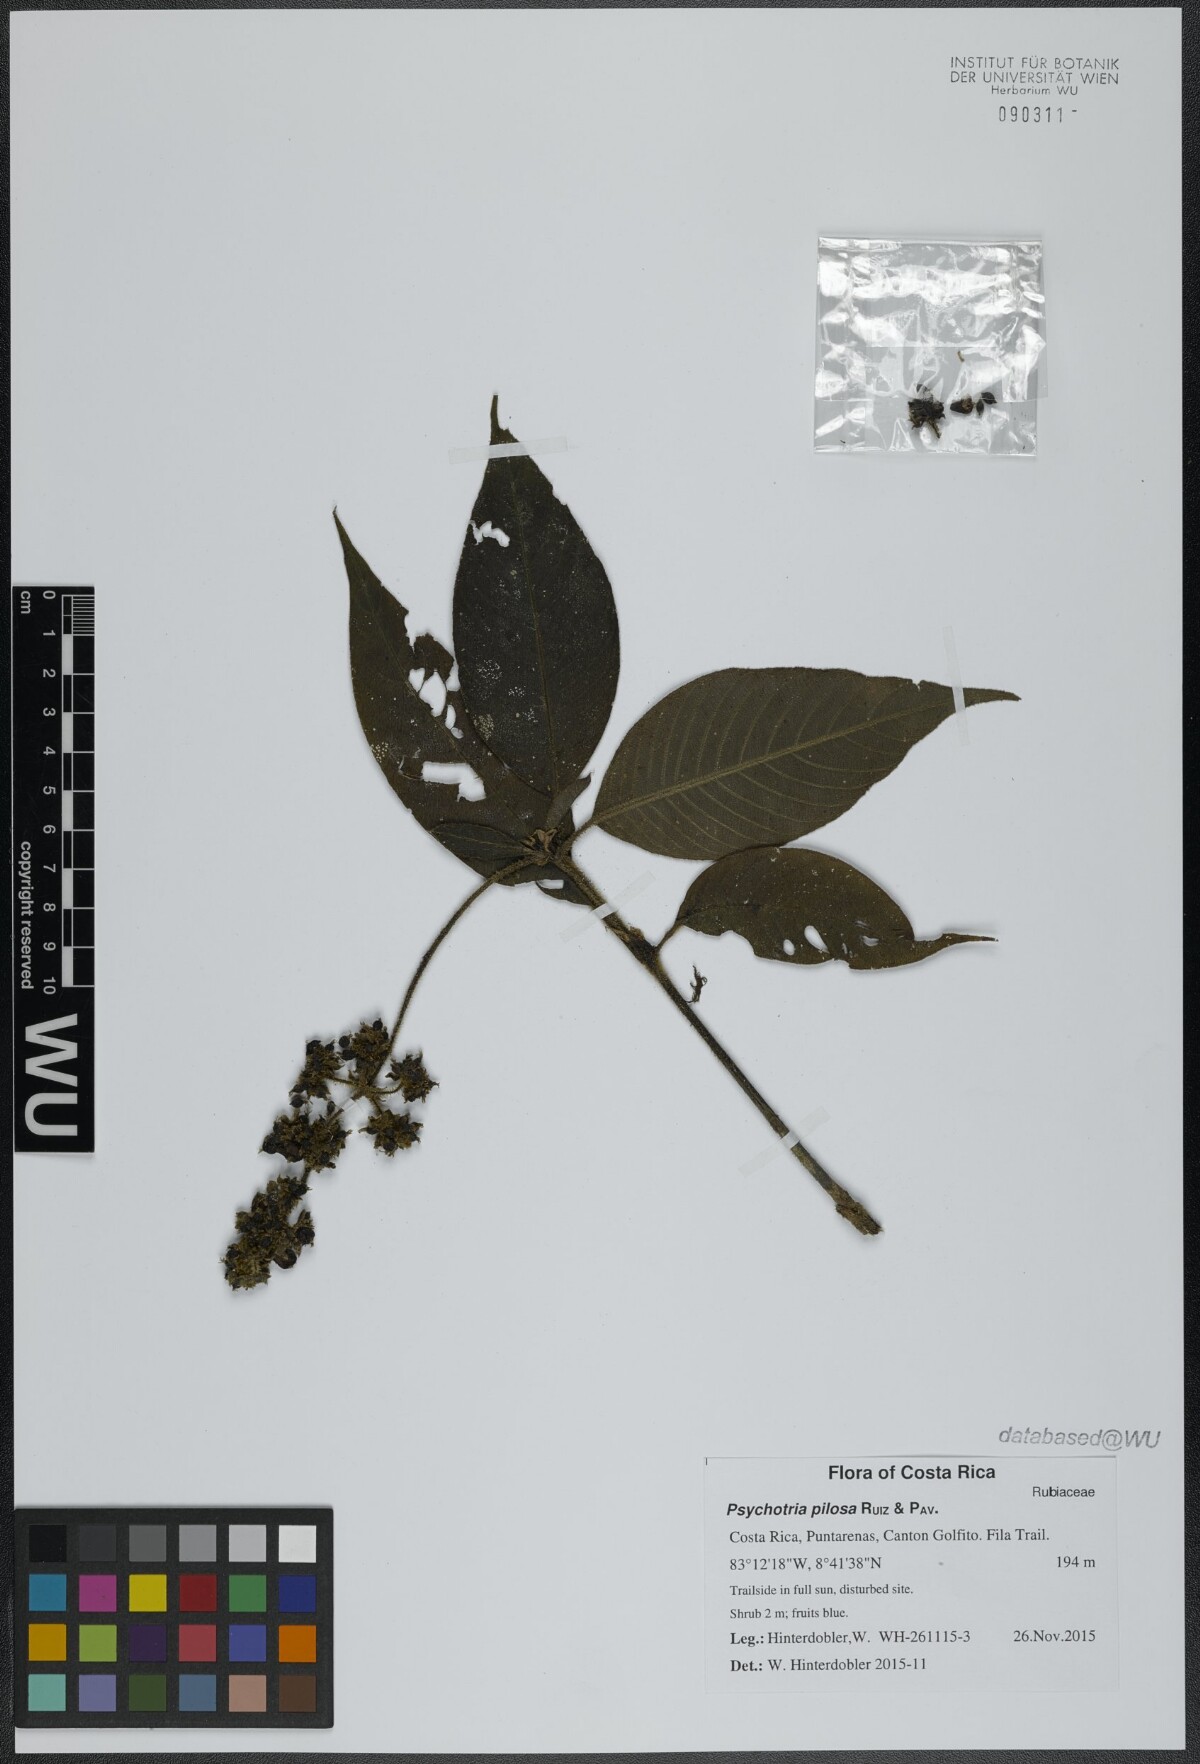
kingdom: Plantae
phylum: Tracheophyta
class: Magnoliopsida
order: Gentianales
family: Rubiaceae
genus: Palicourea
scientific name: Palicourea pilosa
